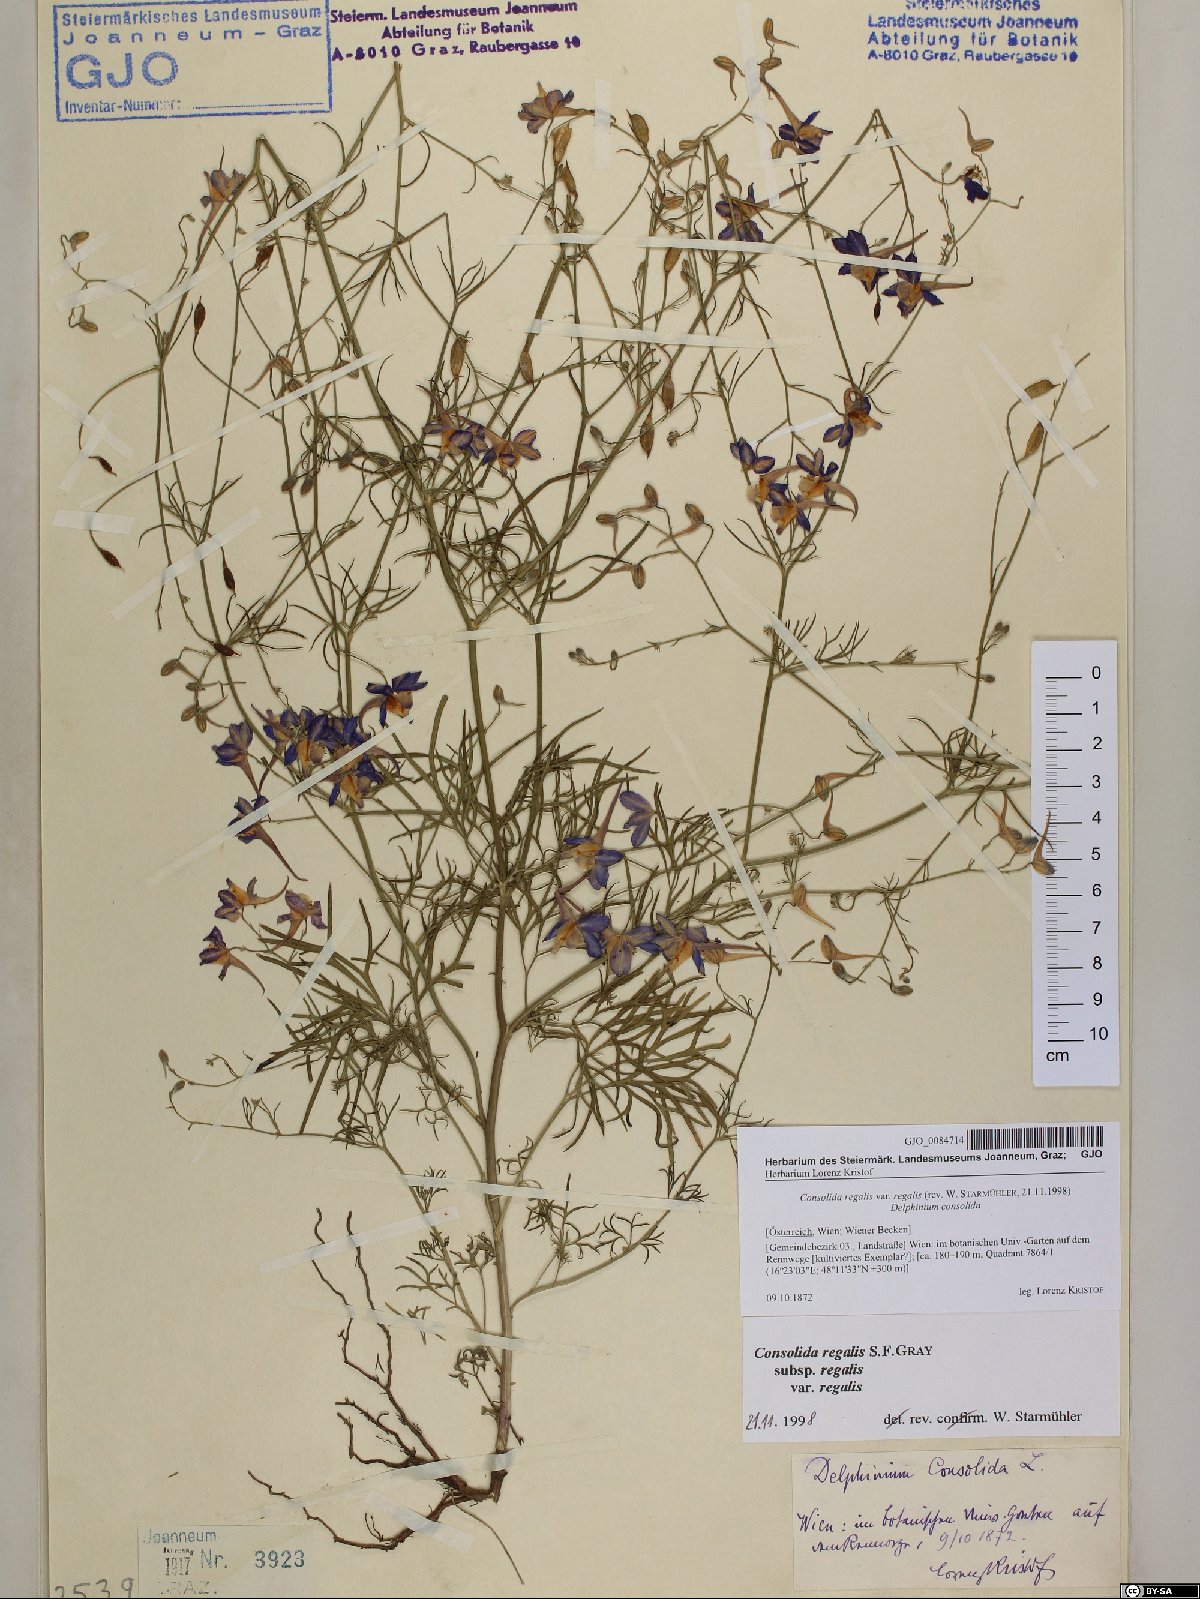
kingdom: Plantae
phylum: Tracheophyta
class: Magnoliopsida
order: Ranunculales
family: Ranunculaceae
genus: Delphinium
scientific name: Delphinium consolida
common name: Branching larkspur
